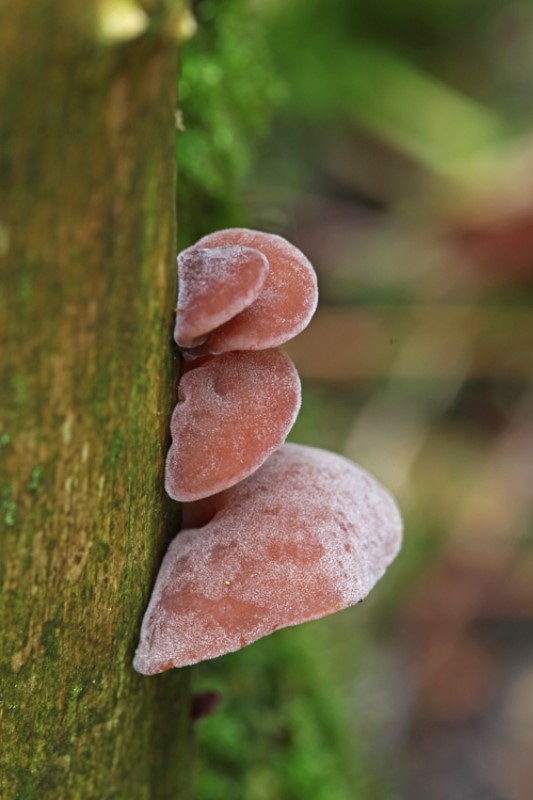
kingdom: Fungi
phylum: Basidiomycota
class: Agaricomycetes
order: Auriculariales
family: Auriculariaceae
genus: Auricularia
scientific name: Auricularia auricula-judae
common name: almindelig judasøre
